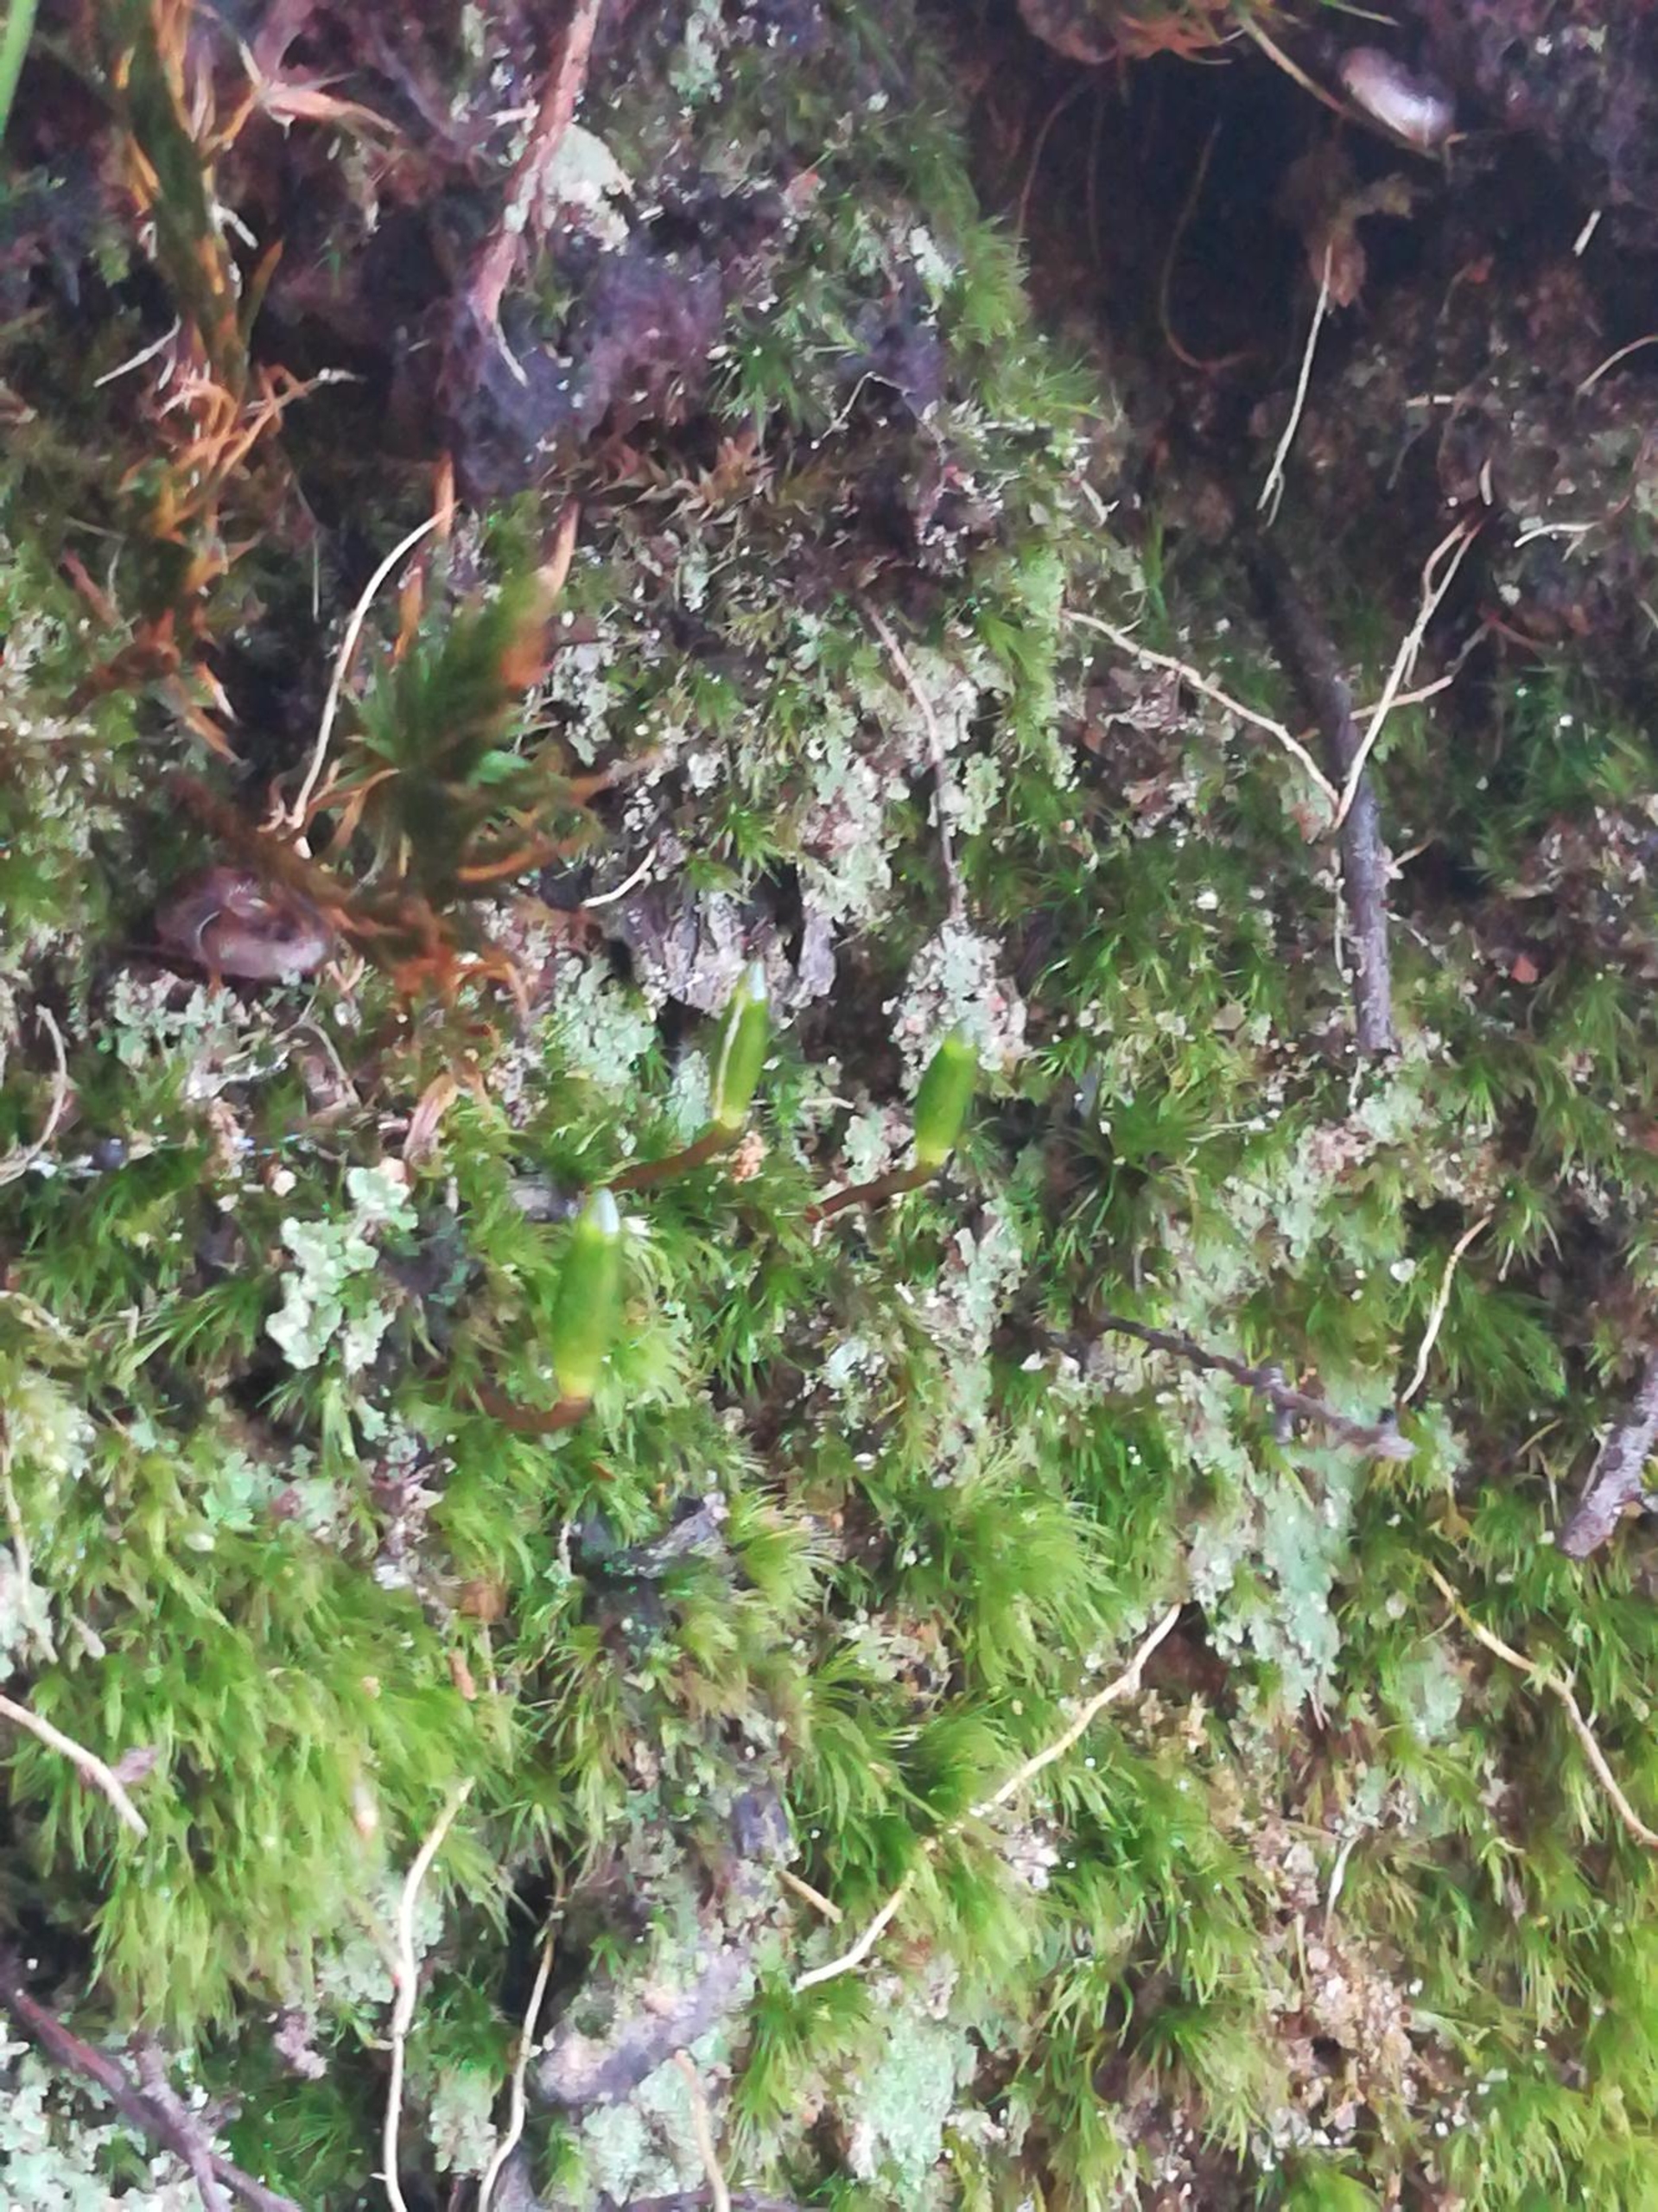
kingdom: Plantae
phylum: Bryophyta
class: Bryopsida
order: Buxbaumiales
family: Buxbaumiaceae
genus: Buxbaumia
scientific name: Buxbaumia viridis
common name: Grøn buxbaumia
